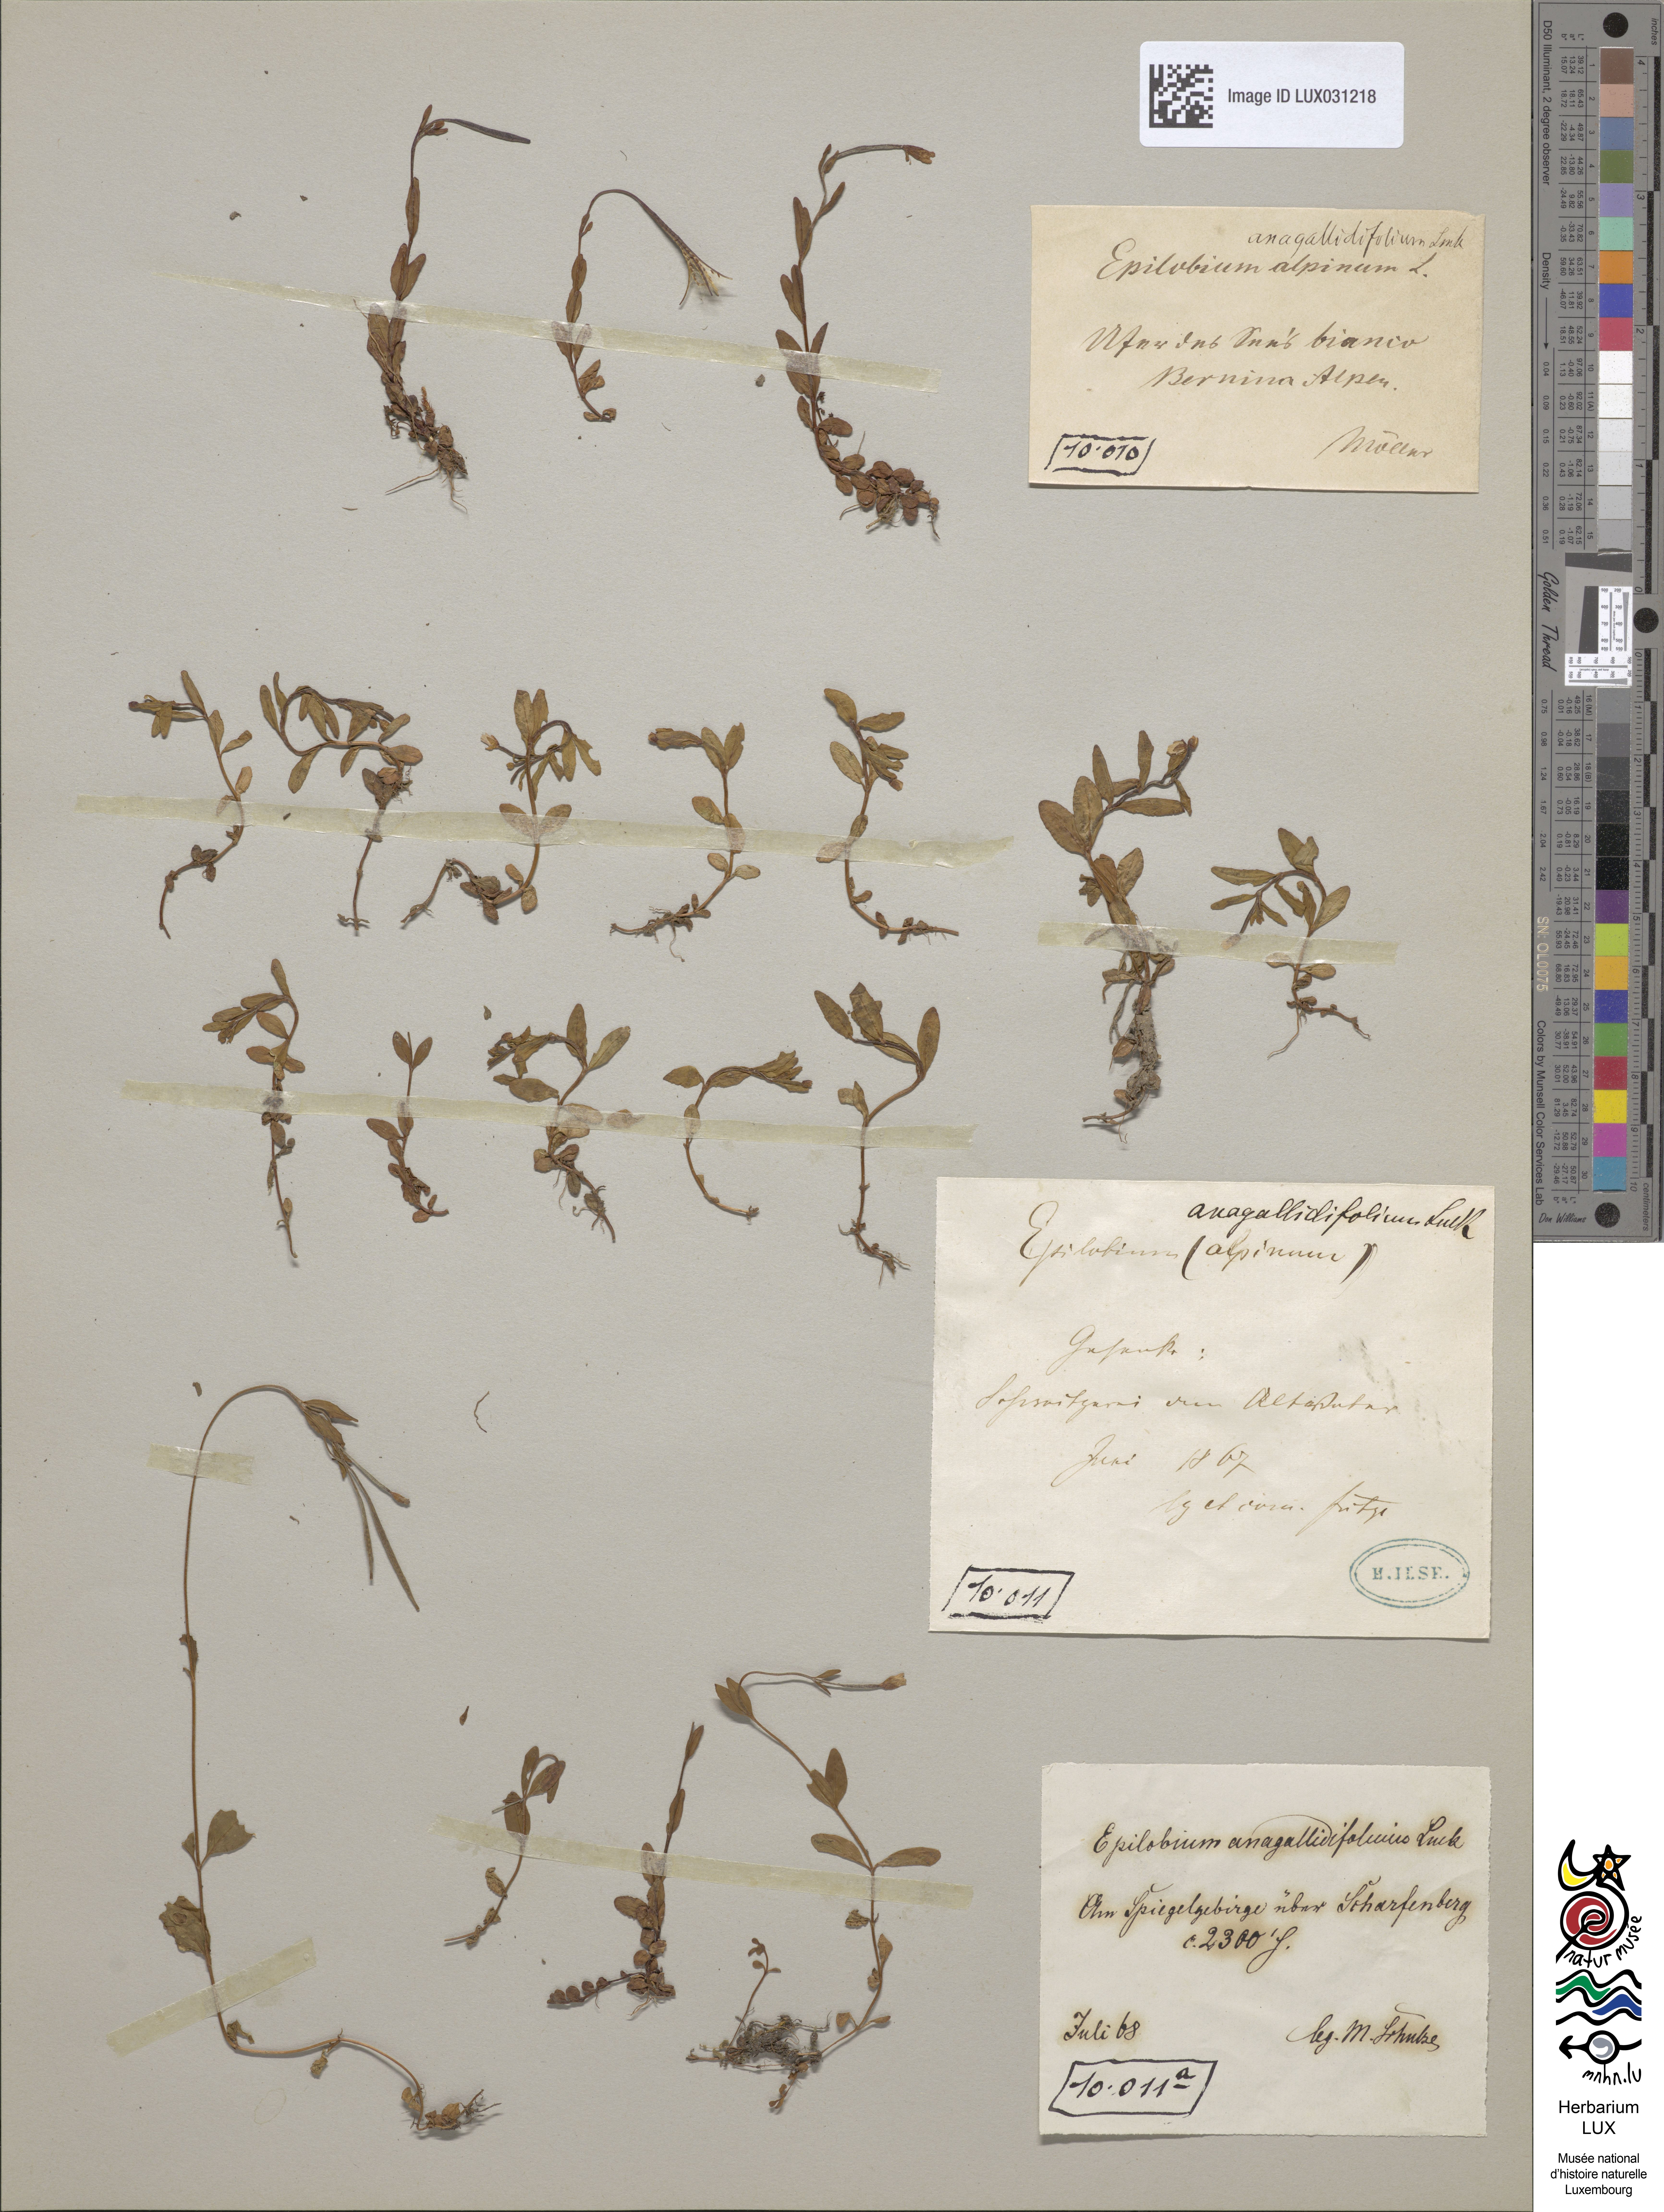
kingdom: Plantae
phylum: Tracheophyta
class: Magnoliopsida
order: Myrtales
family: Onagraceae
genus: Epilobium
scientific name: Epilobium
